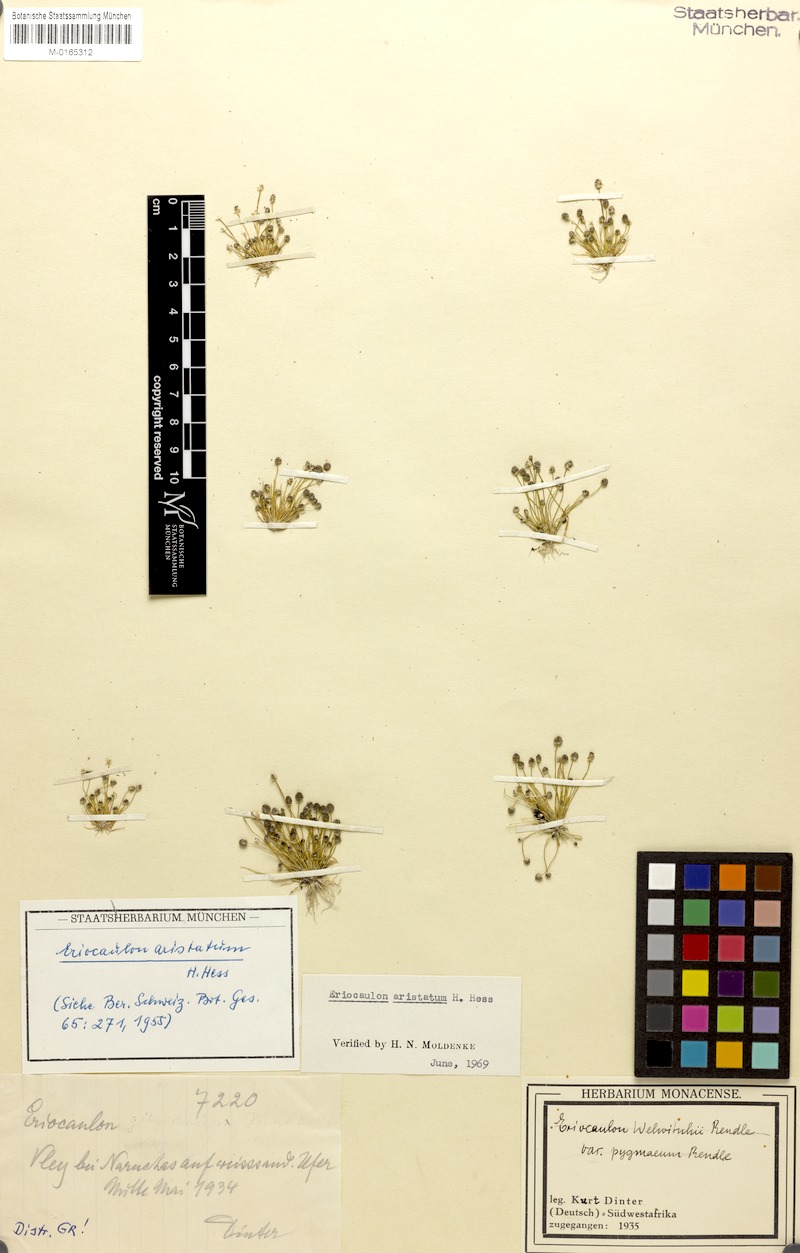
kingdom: Plantae
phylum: Tracheophyta
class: Liliopsida
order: Poales
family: Eriocaulaceae
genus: Eriocaulon
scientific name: Eriocaulon welwitschii
